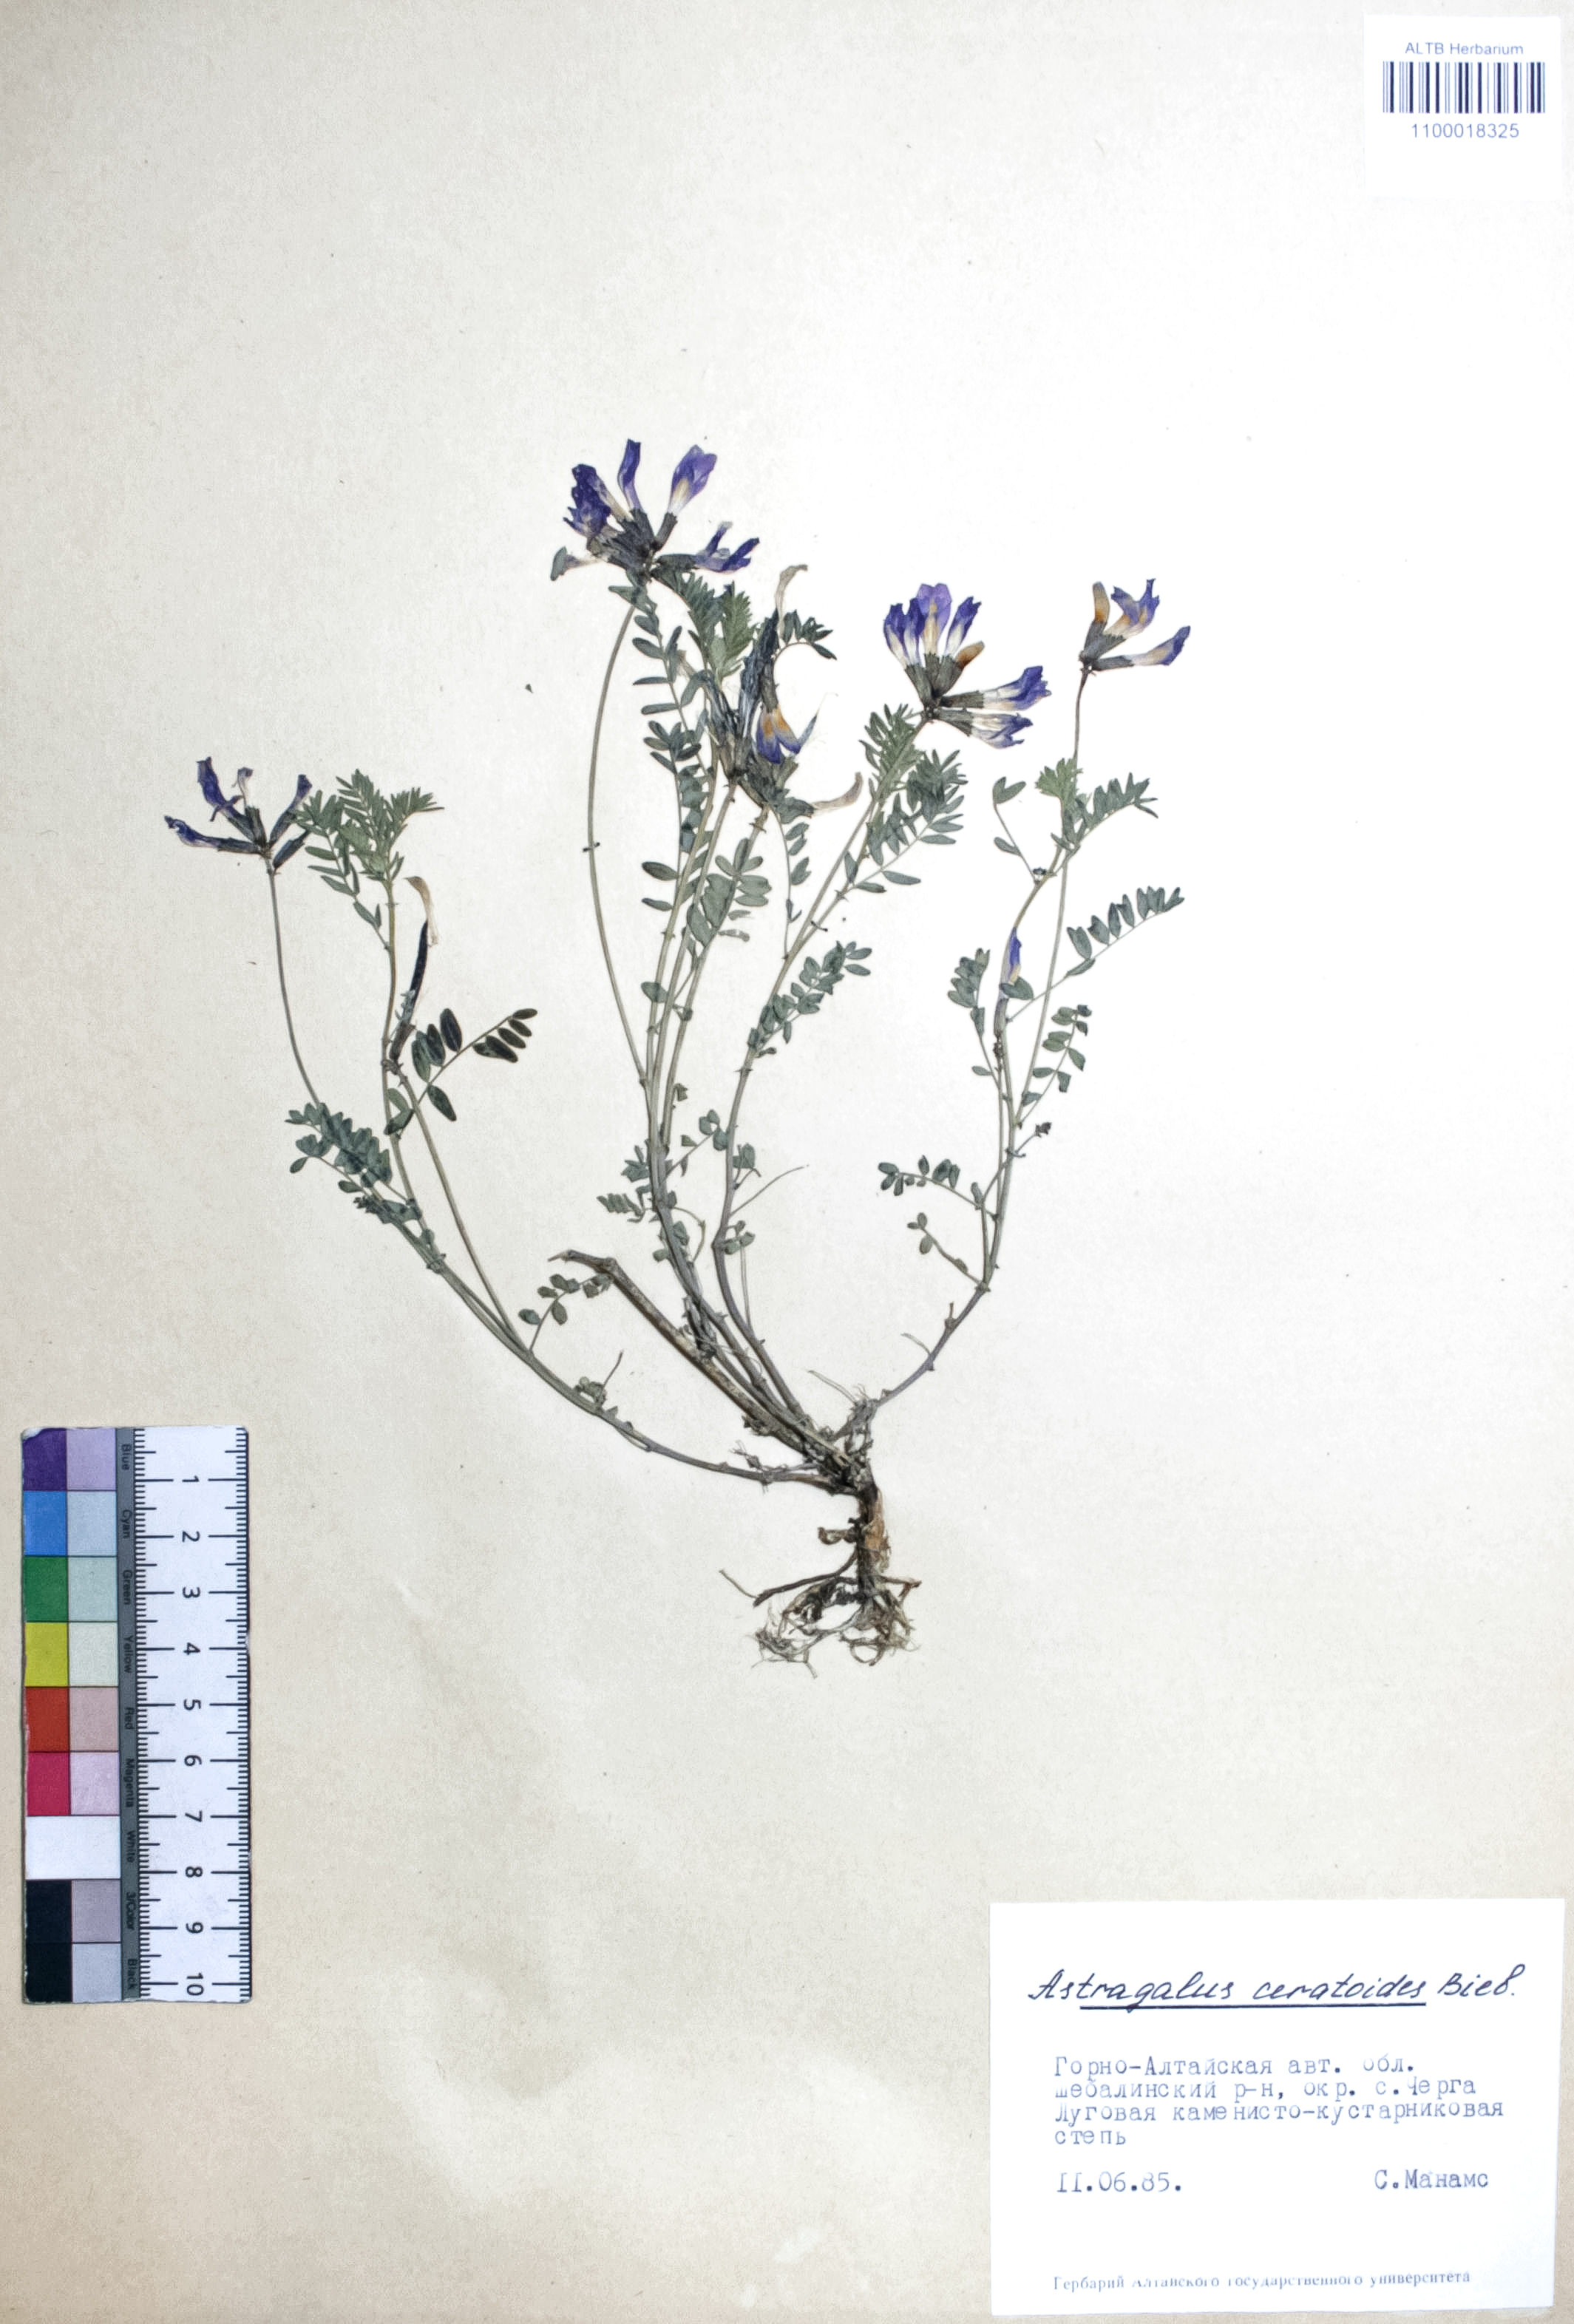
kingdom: Plantae
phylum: Tracheophyta
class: Magnoliopsida
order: Fabales
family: Fabaceae
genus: Astragalus
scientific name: Astragalus ceratoides
